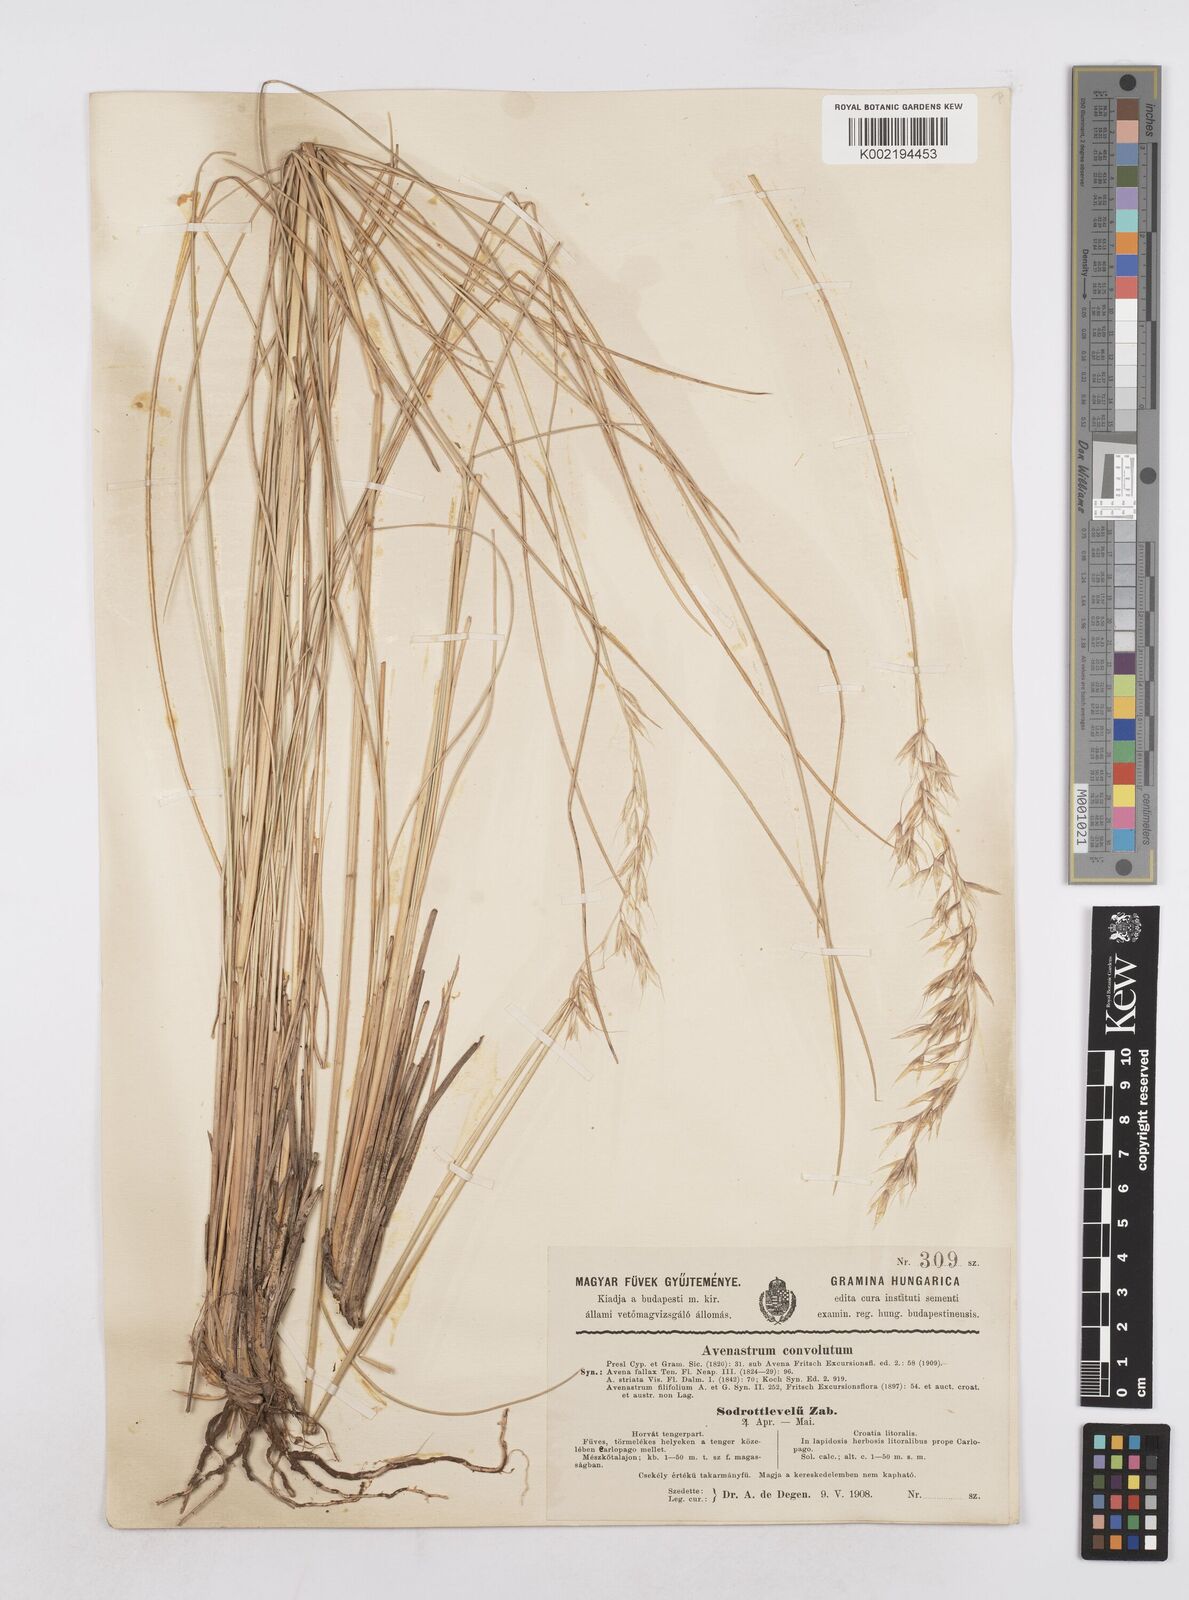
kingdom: Plantae
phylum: Tracheophyta
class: Liliopsida
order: Poales
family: Poaceae
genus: Helictotrichon
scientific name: Helictotrichon convolutum
